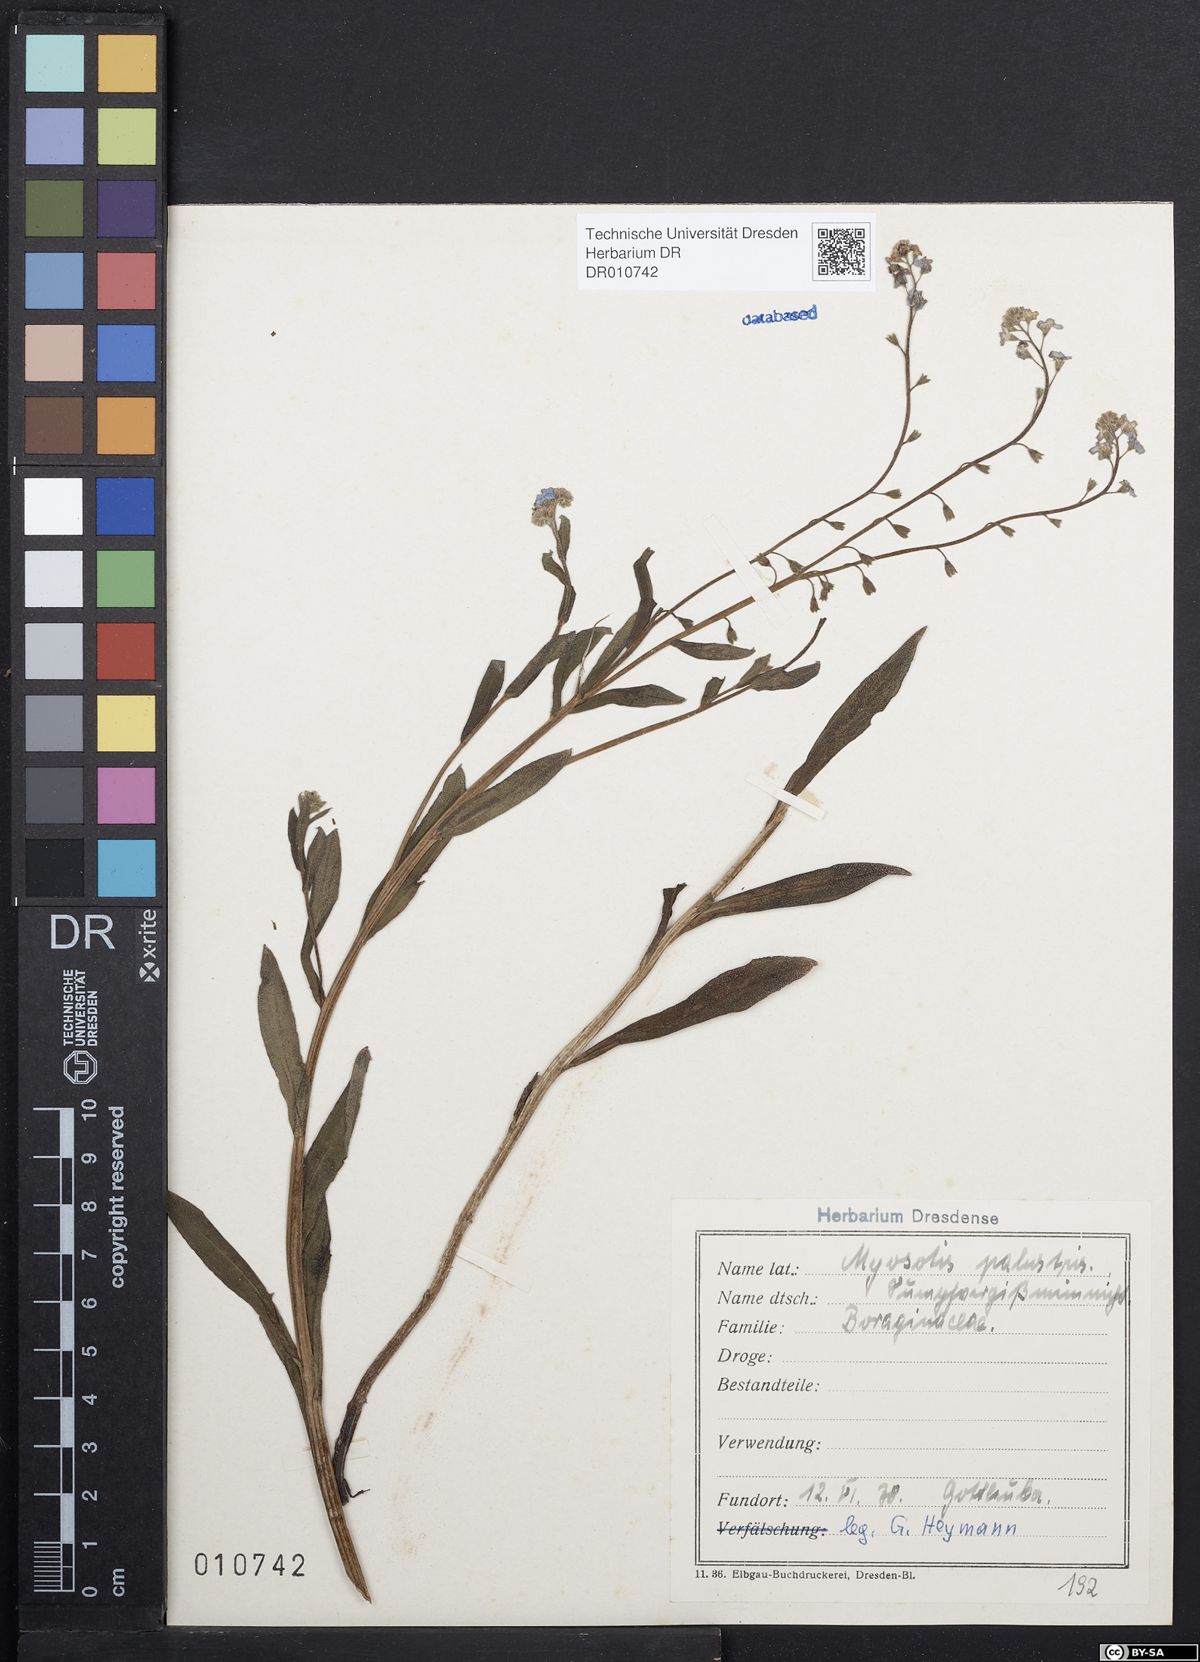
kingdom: Plantae
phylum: Tracheophyta
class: Magnoliopsida
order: Boraginales
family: Boraginaceae
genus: Myosotis
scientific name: Myosotis scorpioides
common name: Water forget-me-not
